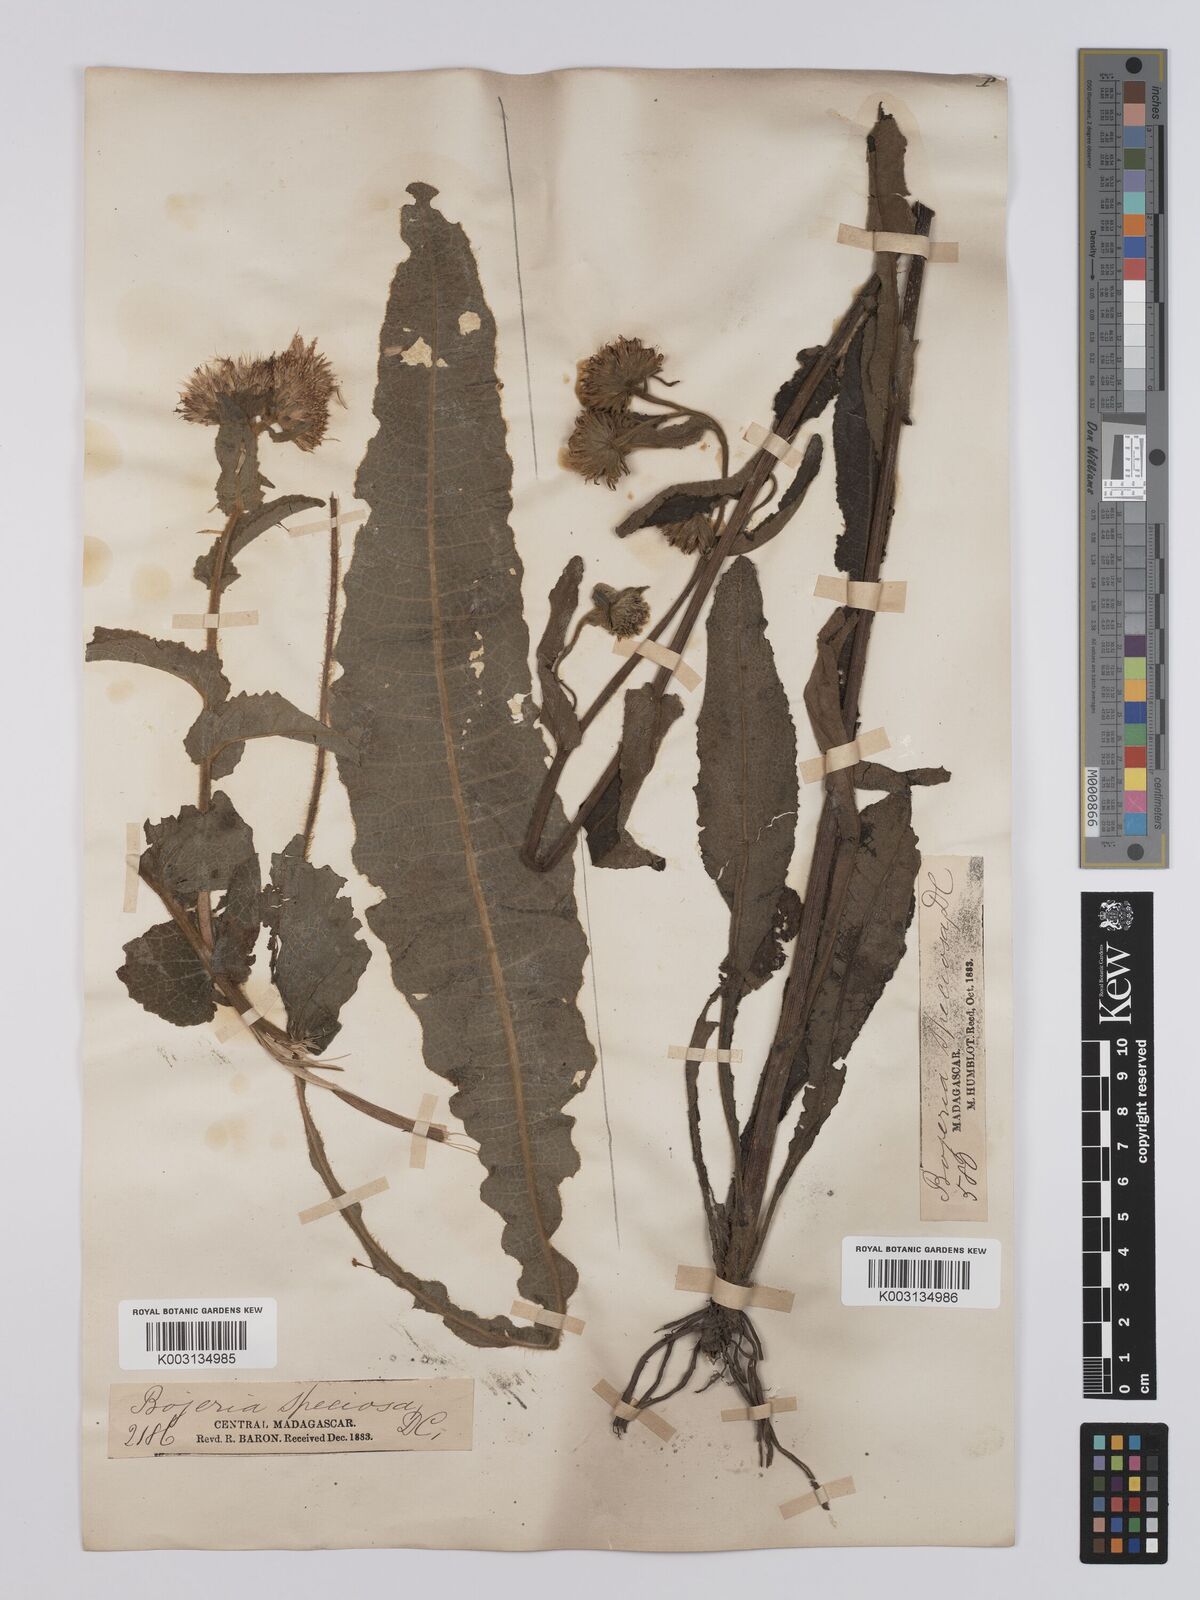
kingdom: Plantae
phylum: Tracheophyta
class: Magnoliopsida
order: Asterales
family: Asteraceae
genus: Inula
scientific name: Inula speciosa
